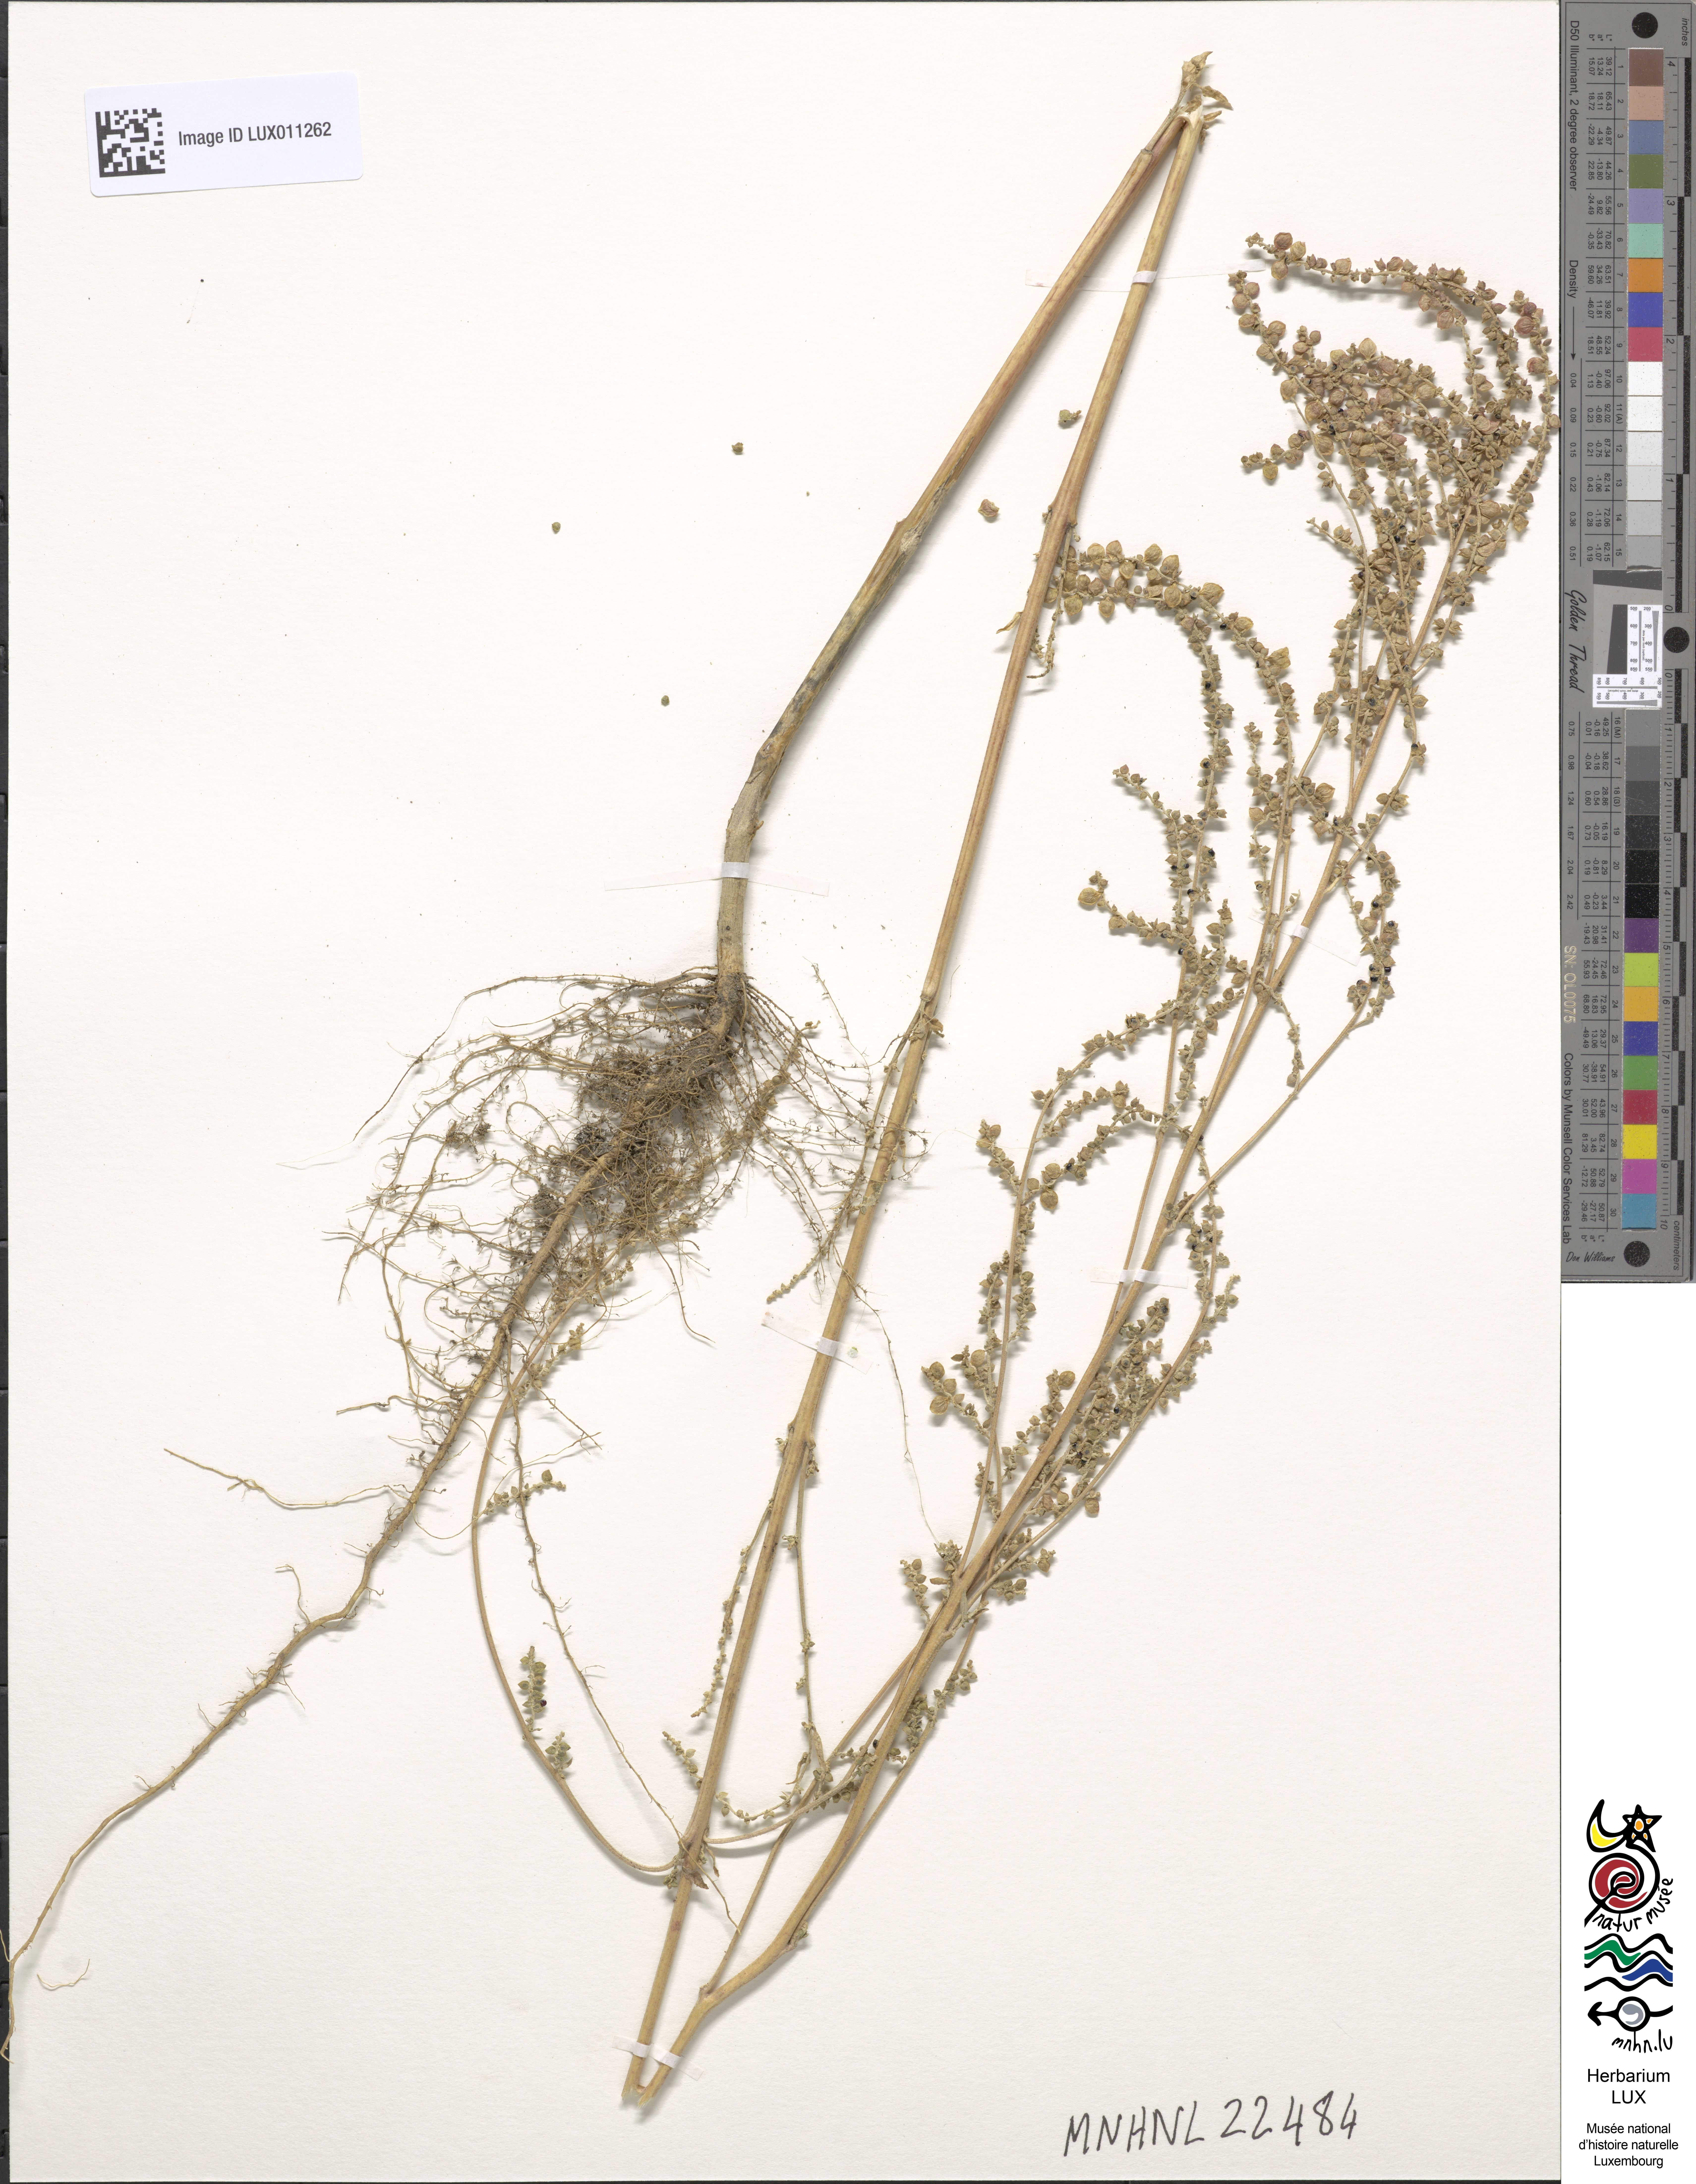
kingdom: Plantae
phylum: Tracheophyta
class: Magnoliopsida
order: Caryophyllales
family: Amaranthaceae
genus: Atriplex
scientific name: Atriplex micrantha
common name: Twoscale saltbush
